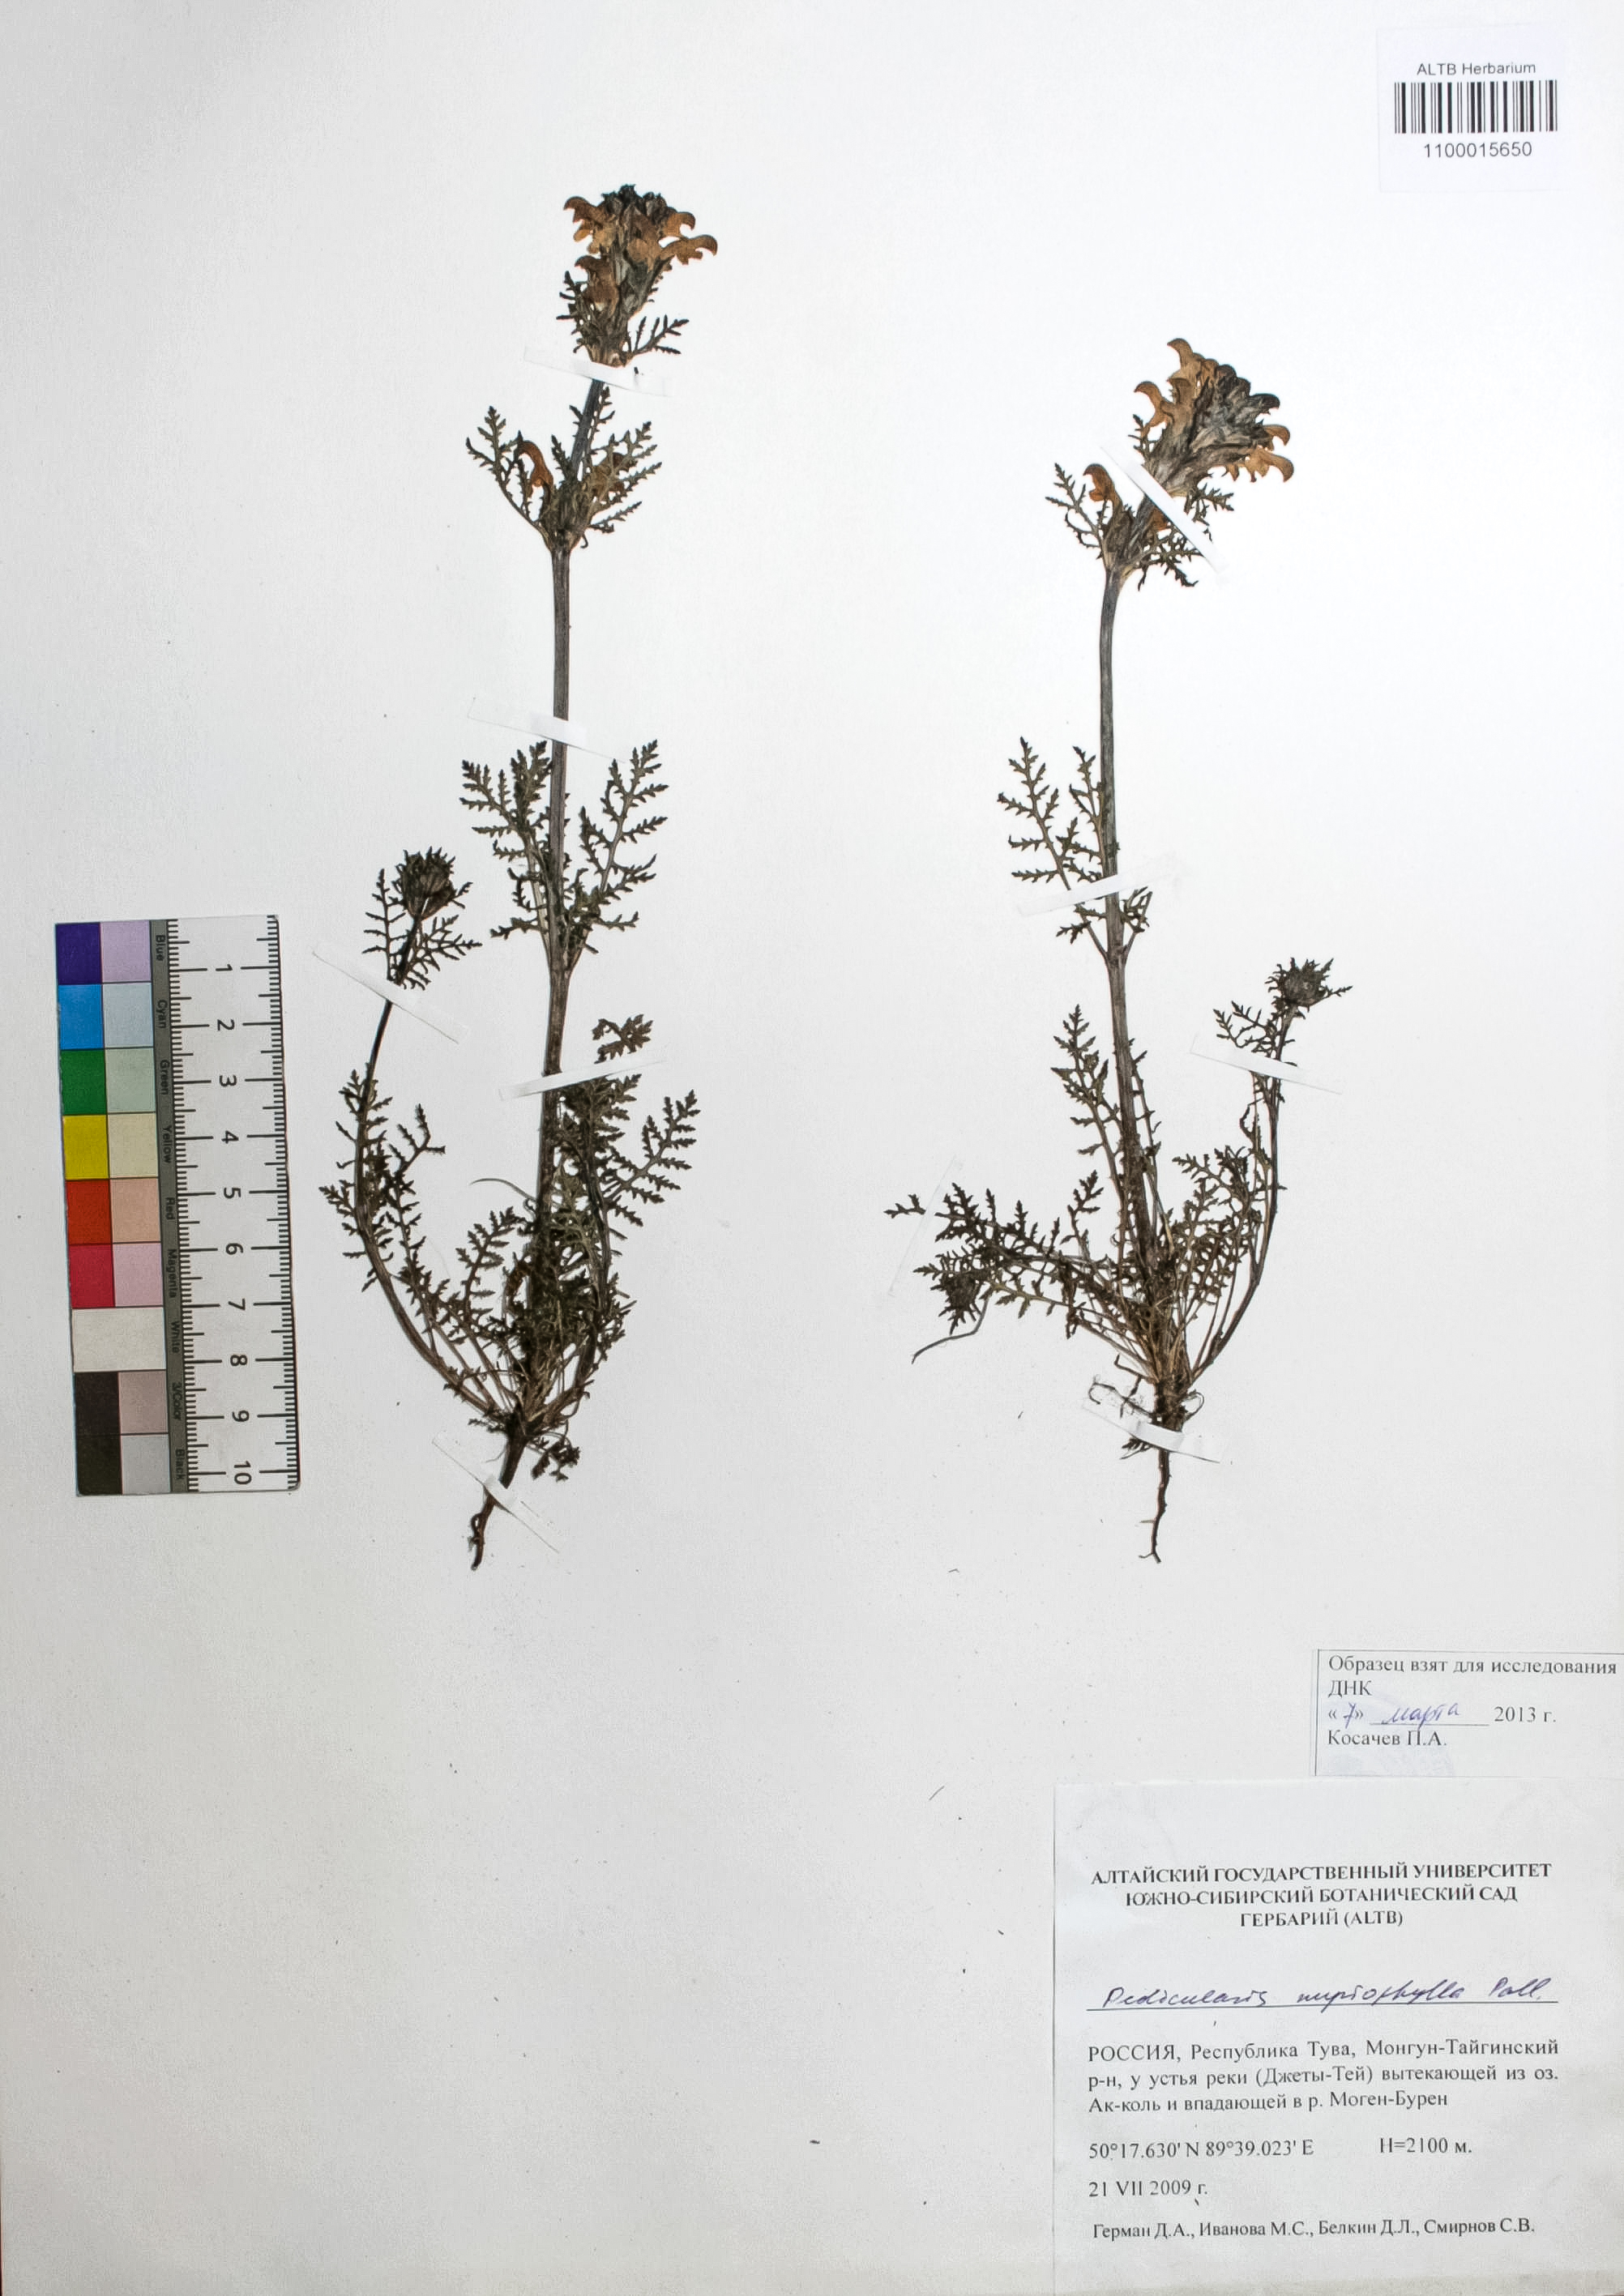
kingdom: Plantae
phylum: Tracheophyta
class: Magnoliopsida
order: Lamiales
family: Orobanchaceae
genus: Pedicularis
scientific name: Pedicularis myriophylla
